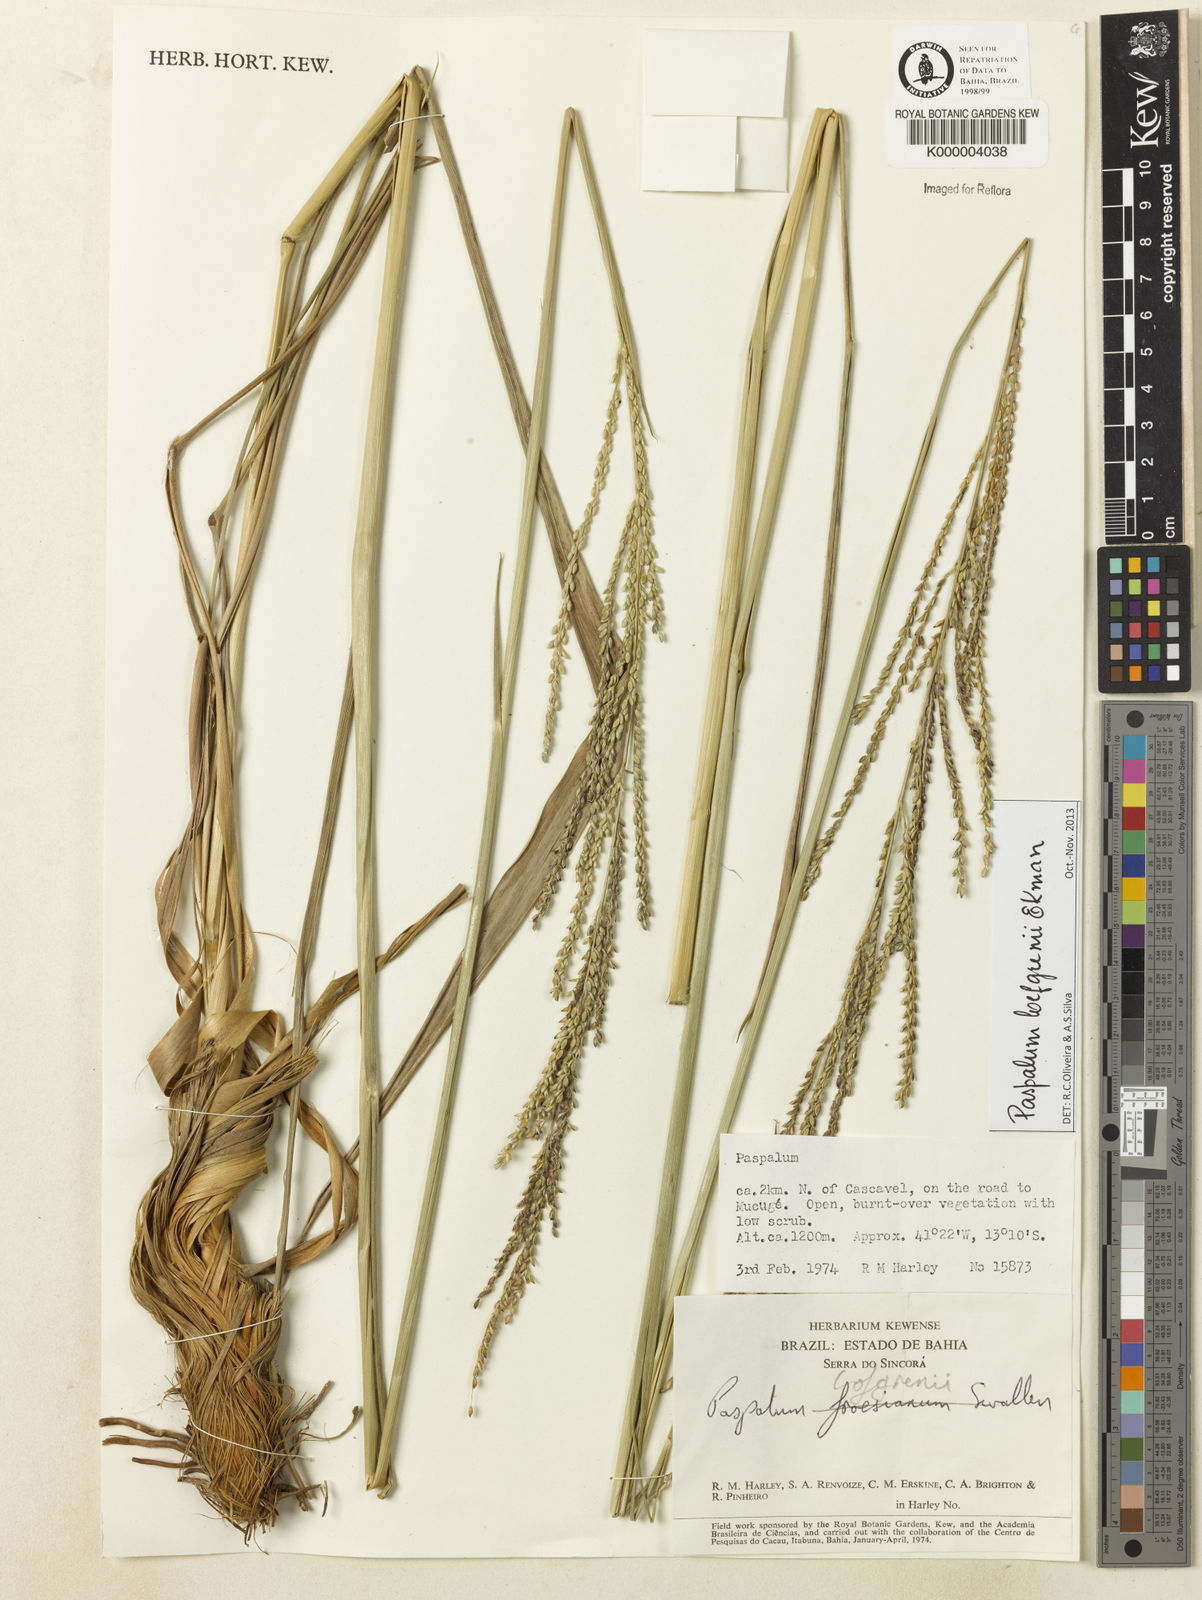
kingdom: Plantae
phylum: Tracheophyta
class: Liliopsida
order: Poales
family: Poaceae
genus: Paspalum
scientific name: Paspalum loefgrenii
